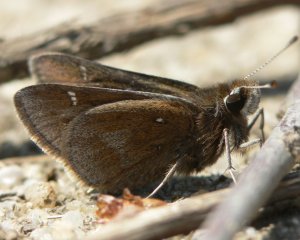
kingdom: Animalia
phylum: Arthropoda
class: Insecta
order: Lepidoptera
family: Hesperiidae
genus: Atrytonopsis
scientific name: Atrytonopsis hianna
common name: Dusted Skipper
